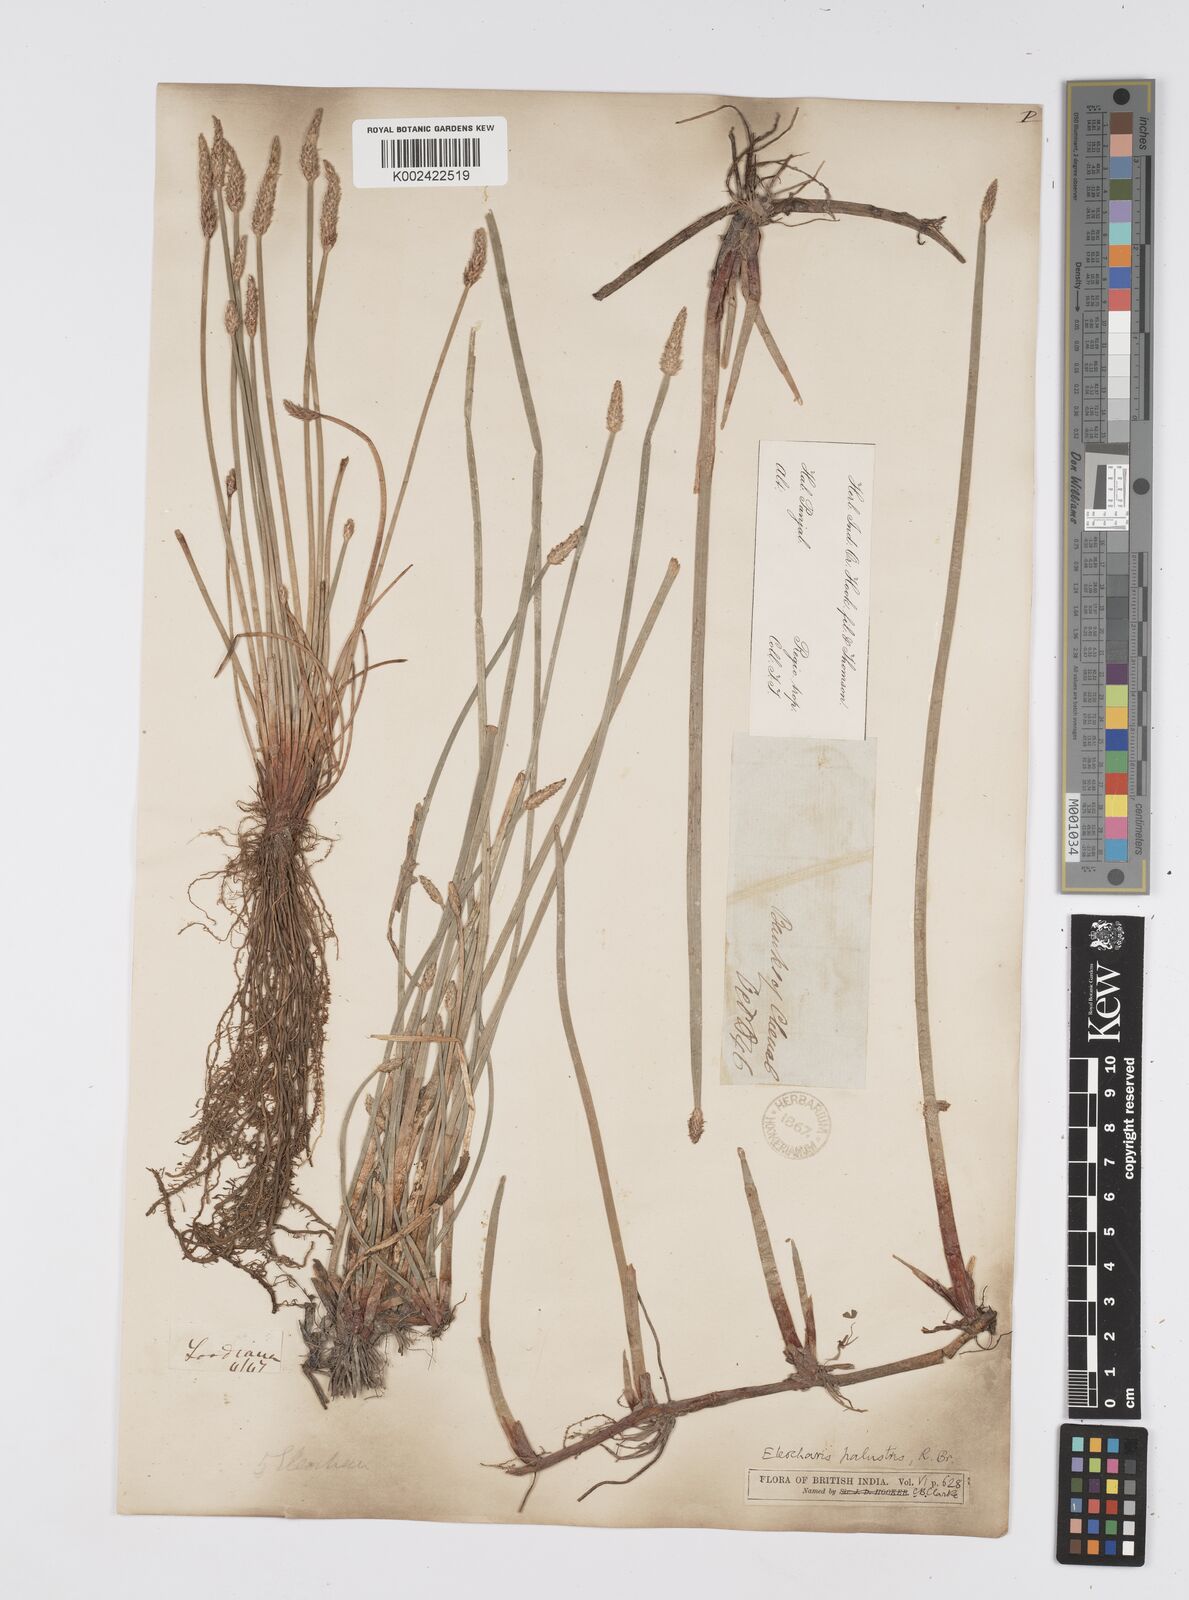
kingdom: Plantae
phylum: Tracheophyta
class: Liliopsida
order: Poales
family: Cyperaceae
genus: Eleocharis
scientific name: Eleocharis palustris
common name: Common spike-rush
